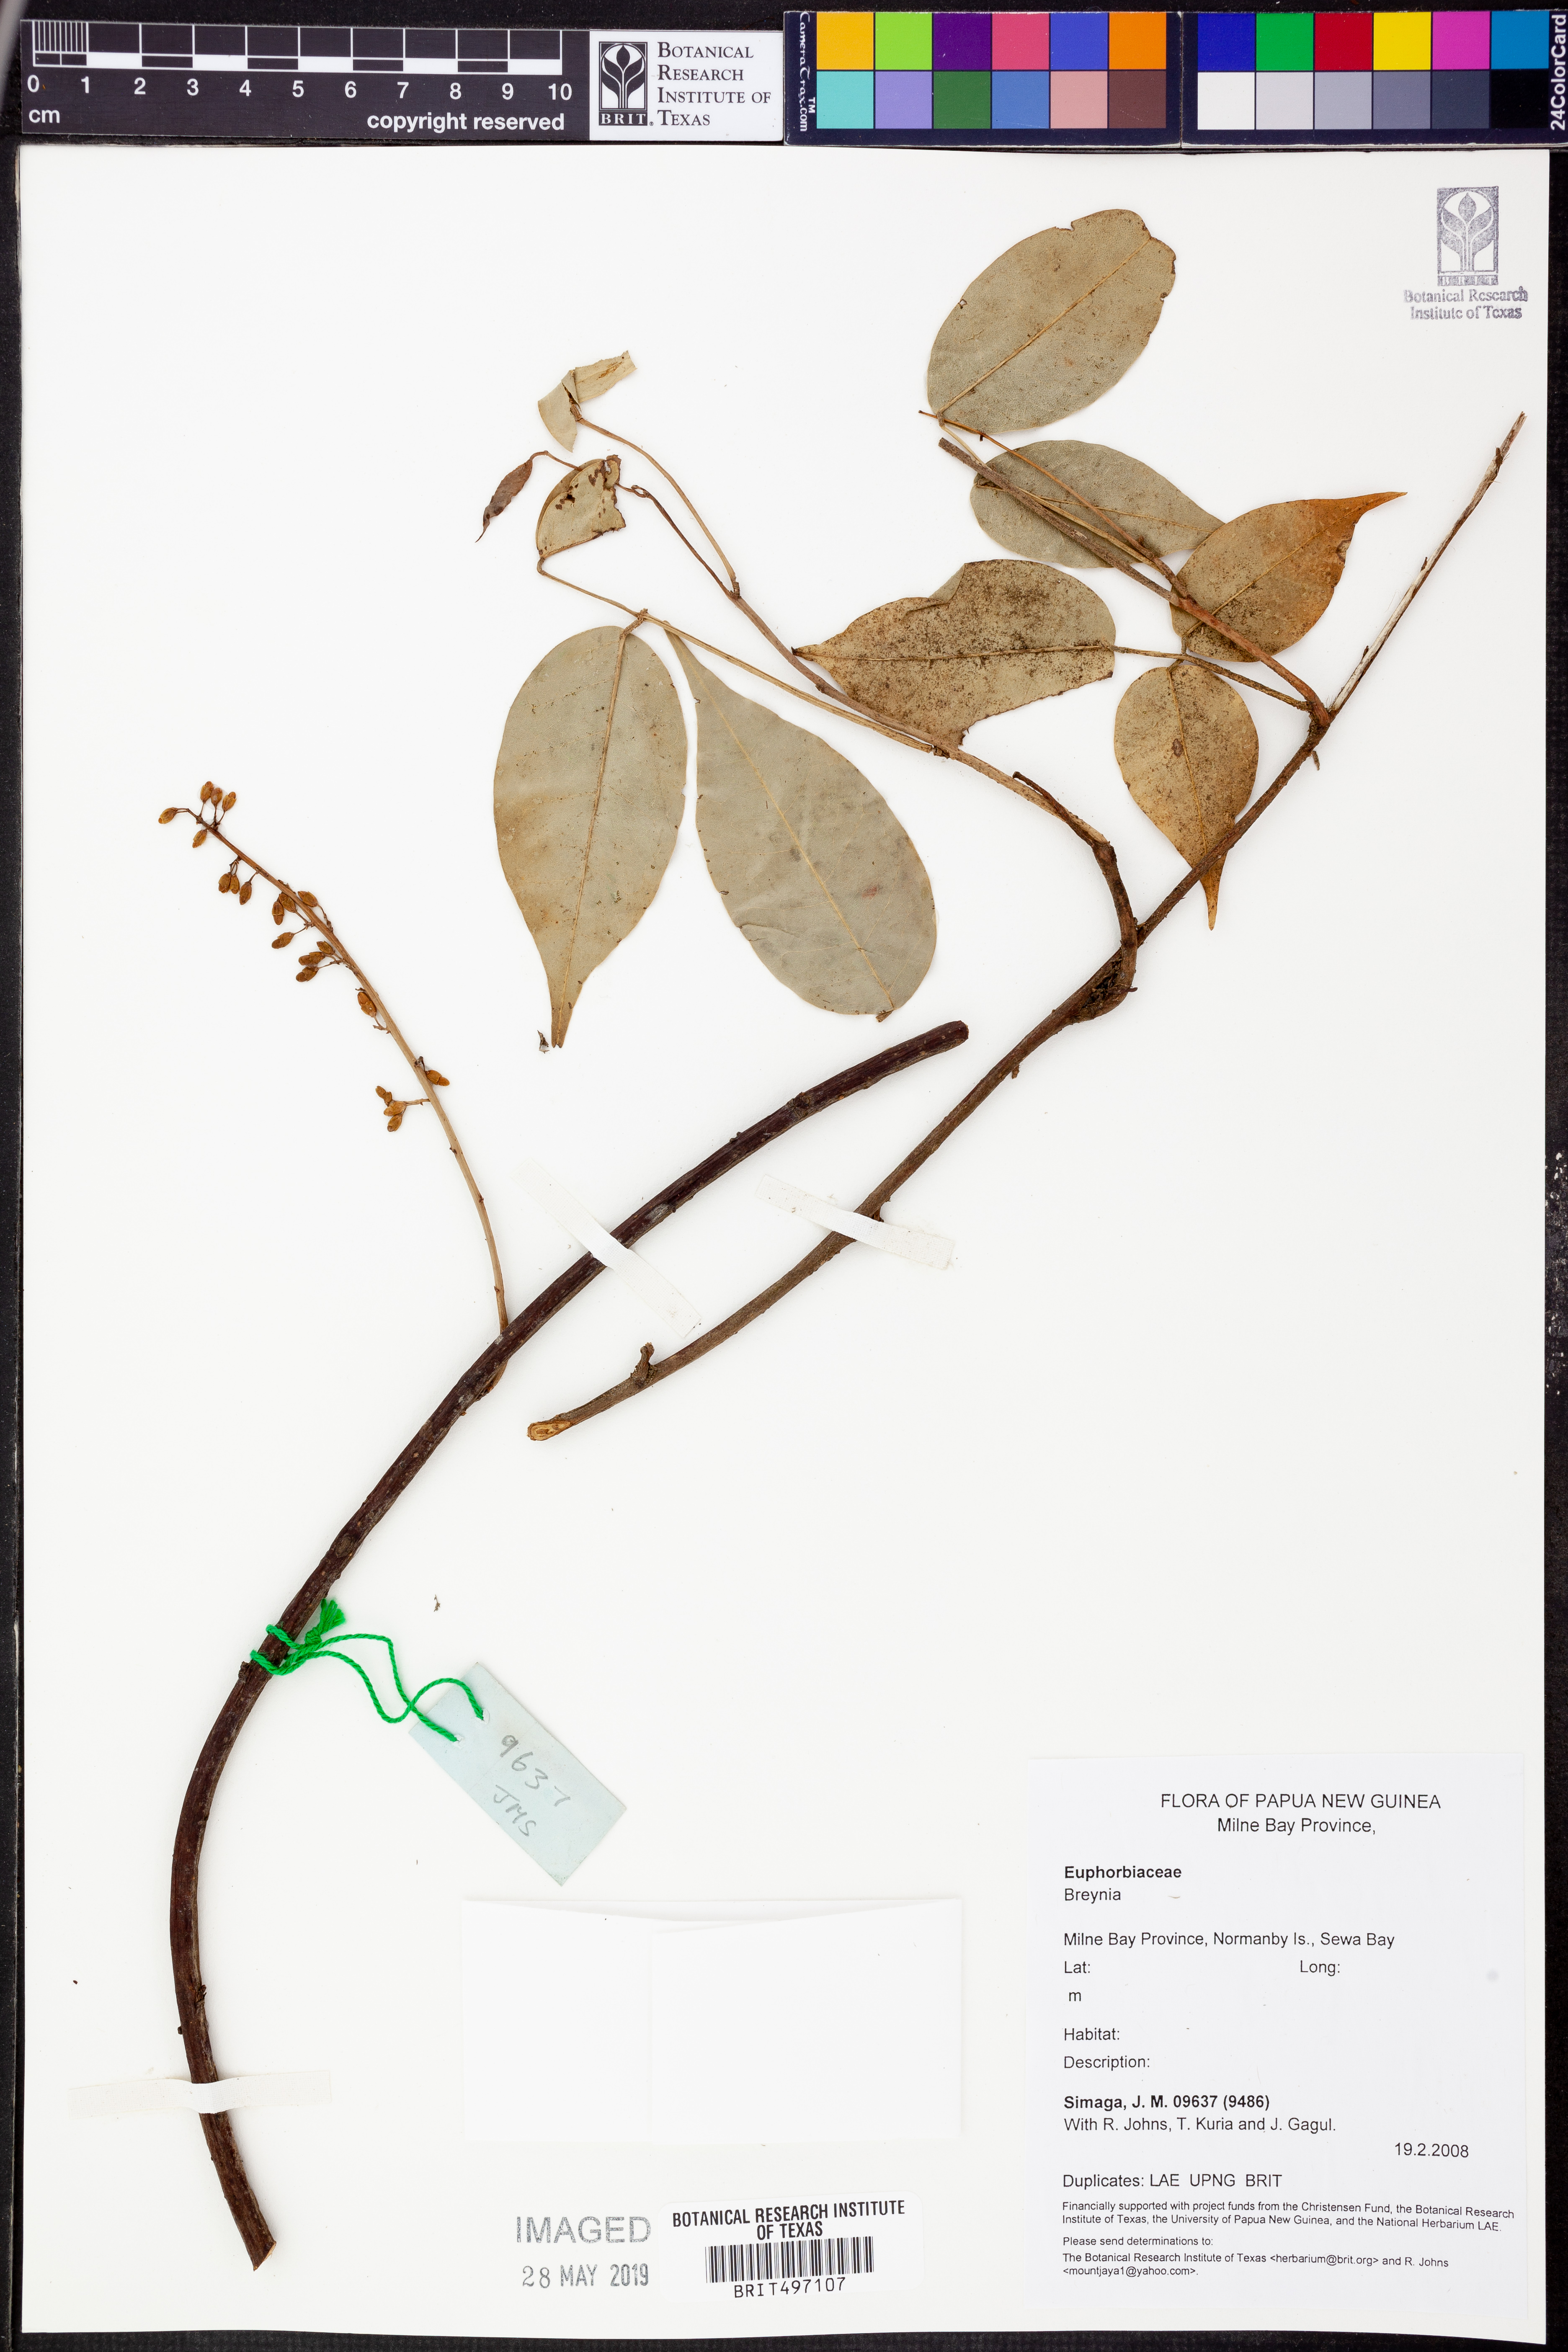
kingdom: Plantae
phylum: Tracheophyta
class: Magnoliopsida
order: Malpighiales
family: Phyllanthaceae
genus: Breynia
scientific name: Breynia
